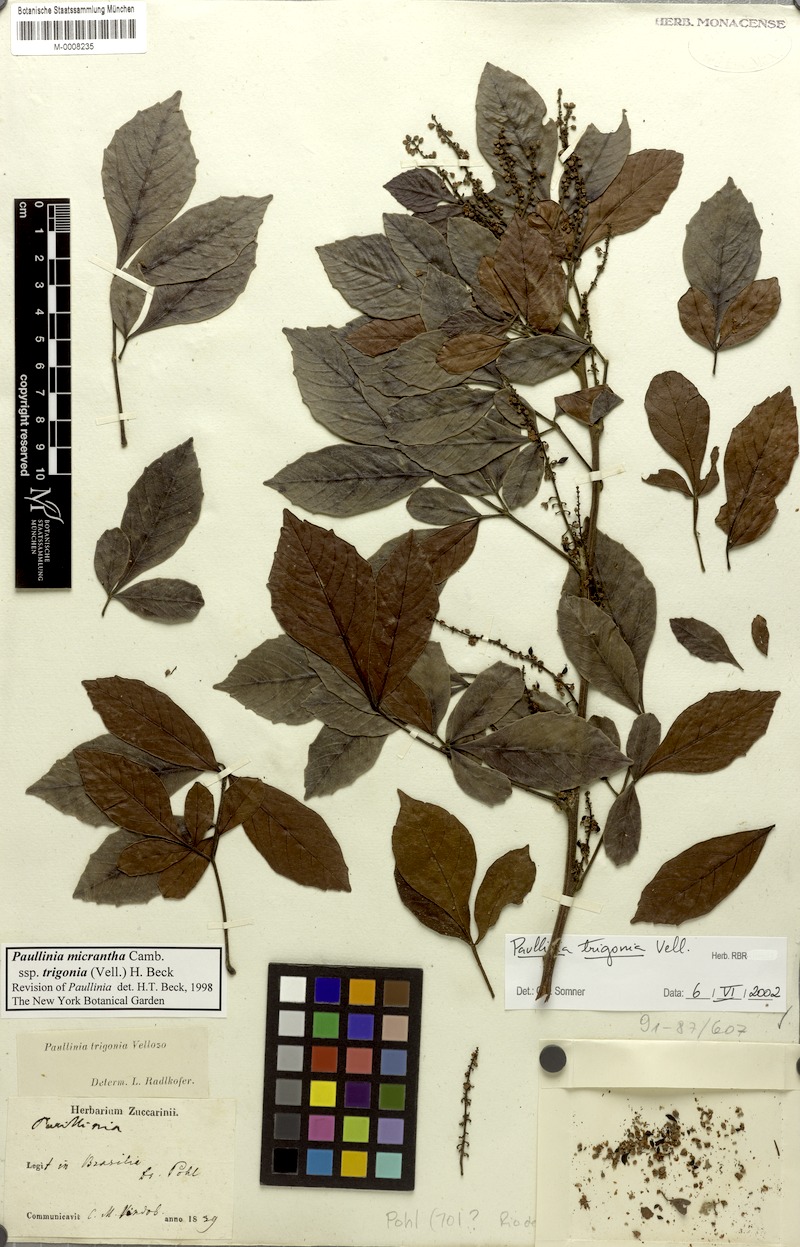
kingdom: Plantae
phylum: Tracheophyta
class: Magnoliopsida
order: Sapindales
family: Sapindaceae
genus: Paullinia
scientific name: Paullinia trigonia
